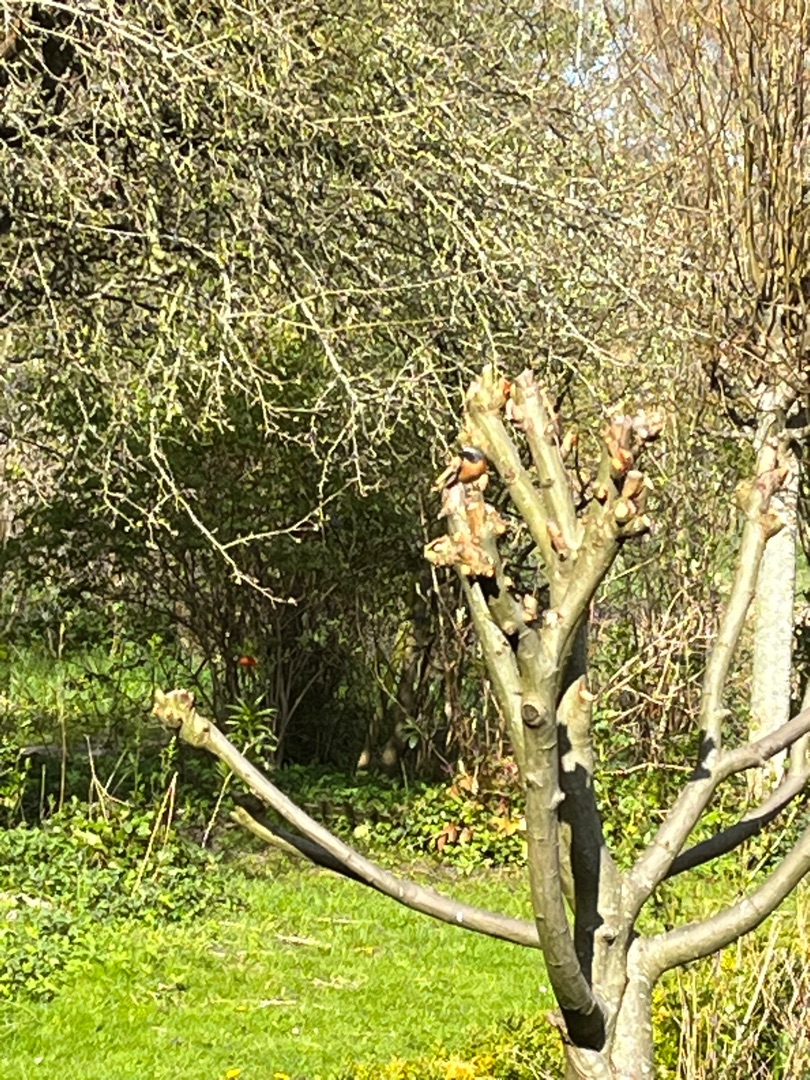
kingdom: Animalia
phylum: Chordata
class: Aves
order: Passeriformes
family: Muscicapidae
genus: Phoenicurus
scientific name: Phoenicurus phoenicurus
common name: Rødstjert
